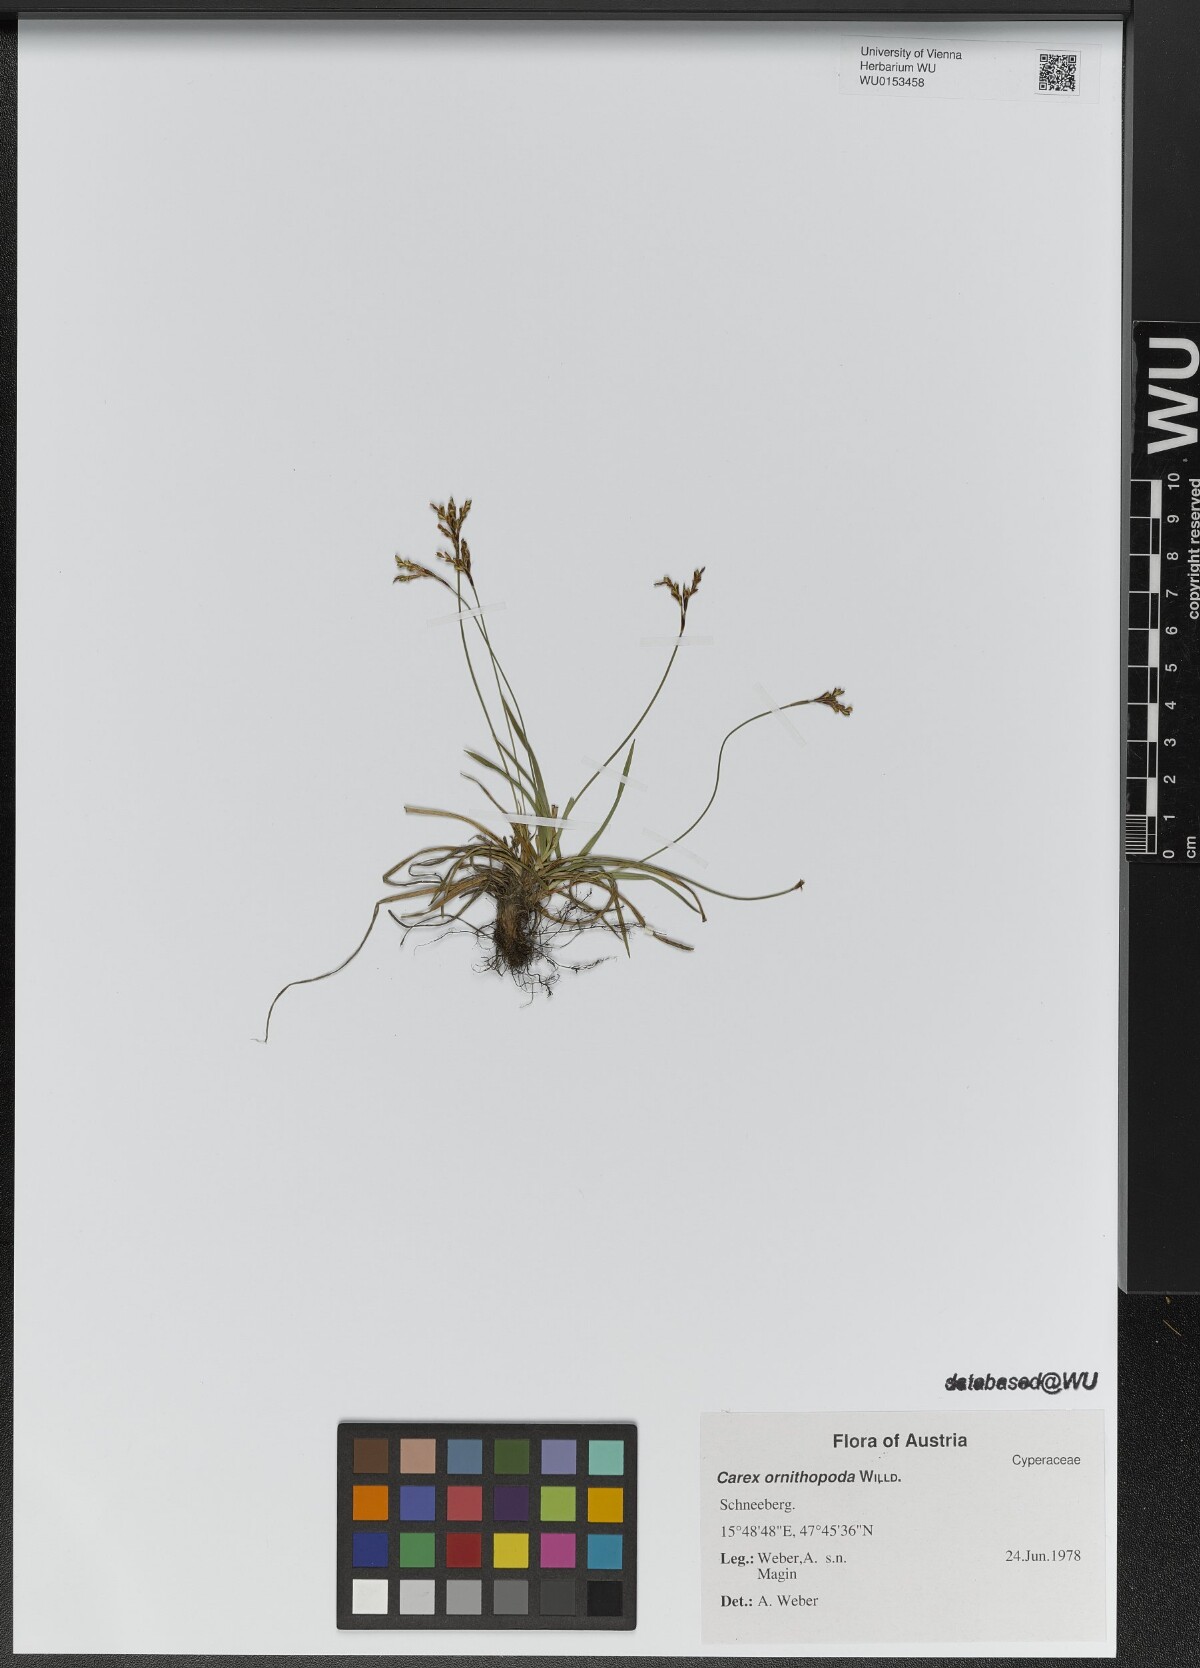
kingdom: Plantae
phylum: Tracheophyta
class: Liliopsida
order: Poales
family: Cyperaceae
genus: Carex
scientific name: Carex ornithopoda
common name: Bird's-foot sedge
